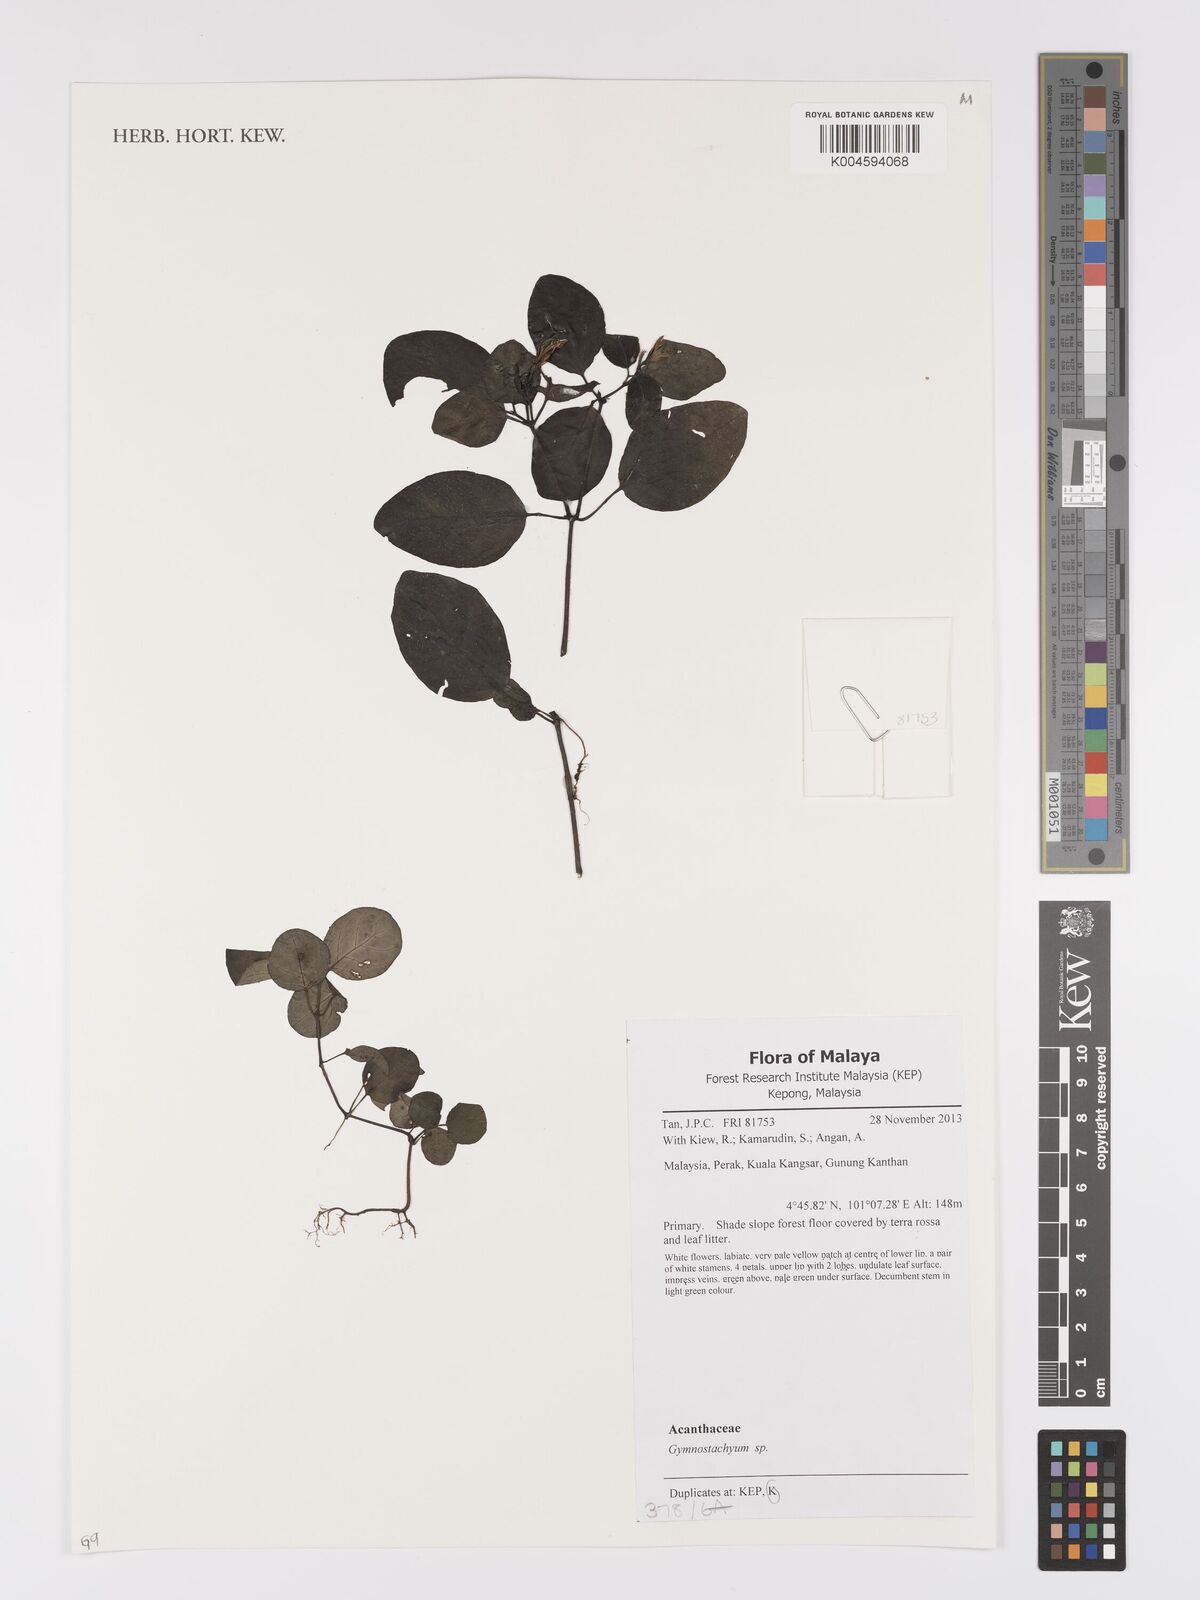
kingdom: Plantae
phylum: Tracheophyta
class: Magnoliopsida
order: Lamiales
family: Acanthaceae
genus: Gymnostachyum
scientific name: Gymnostachyum
